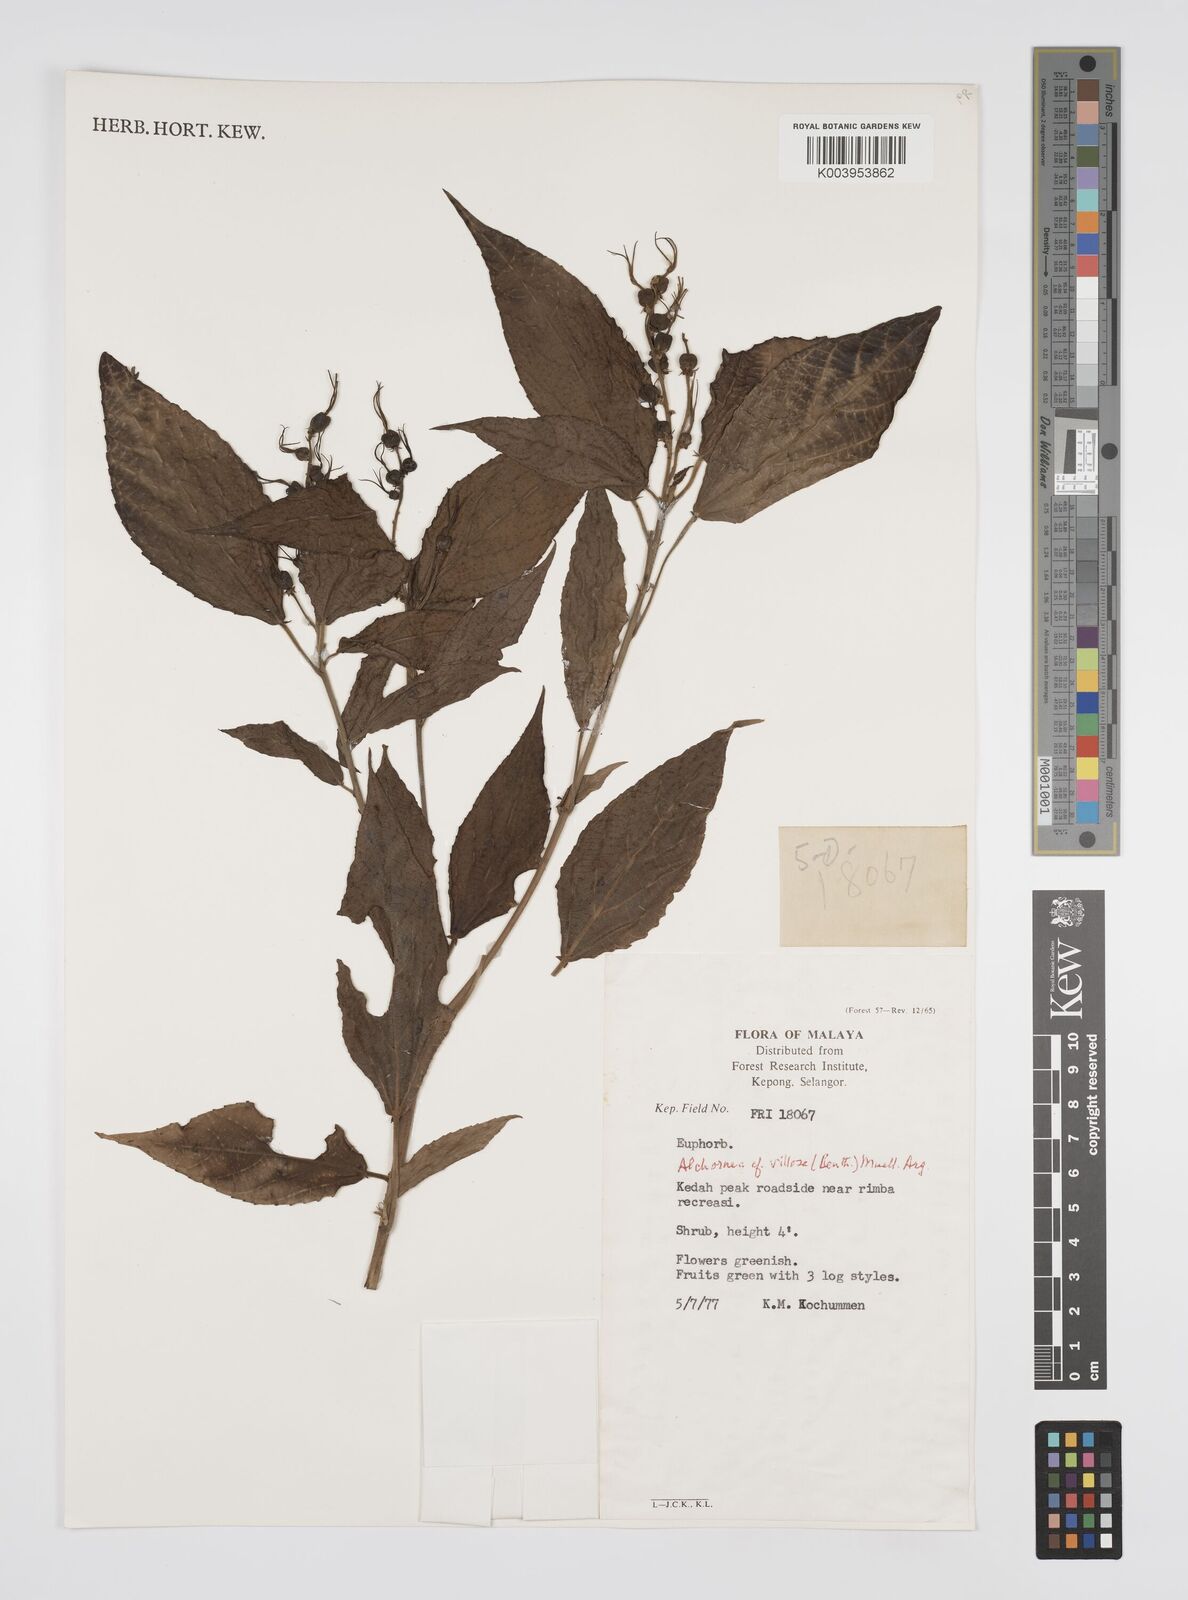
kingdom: Plantae
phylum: Tracheophyta
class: Magnoliopsida
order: Malpighiales
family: Euphorbiaceae
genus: Alchornea
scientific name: Alchornea tiliifolia
